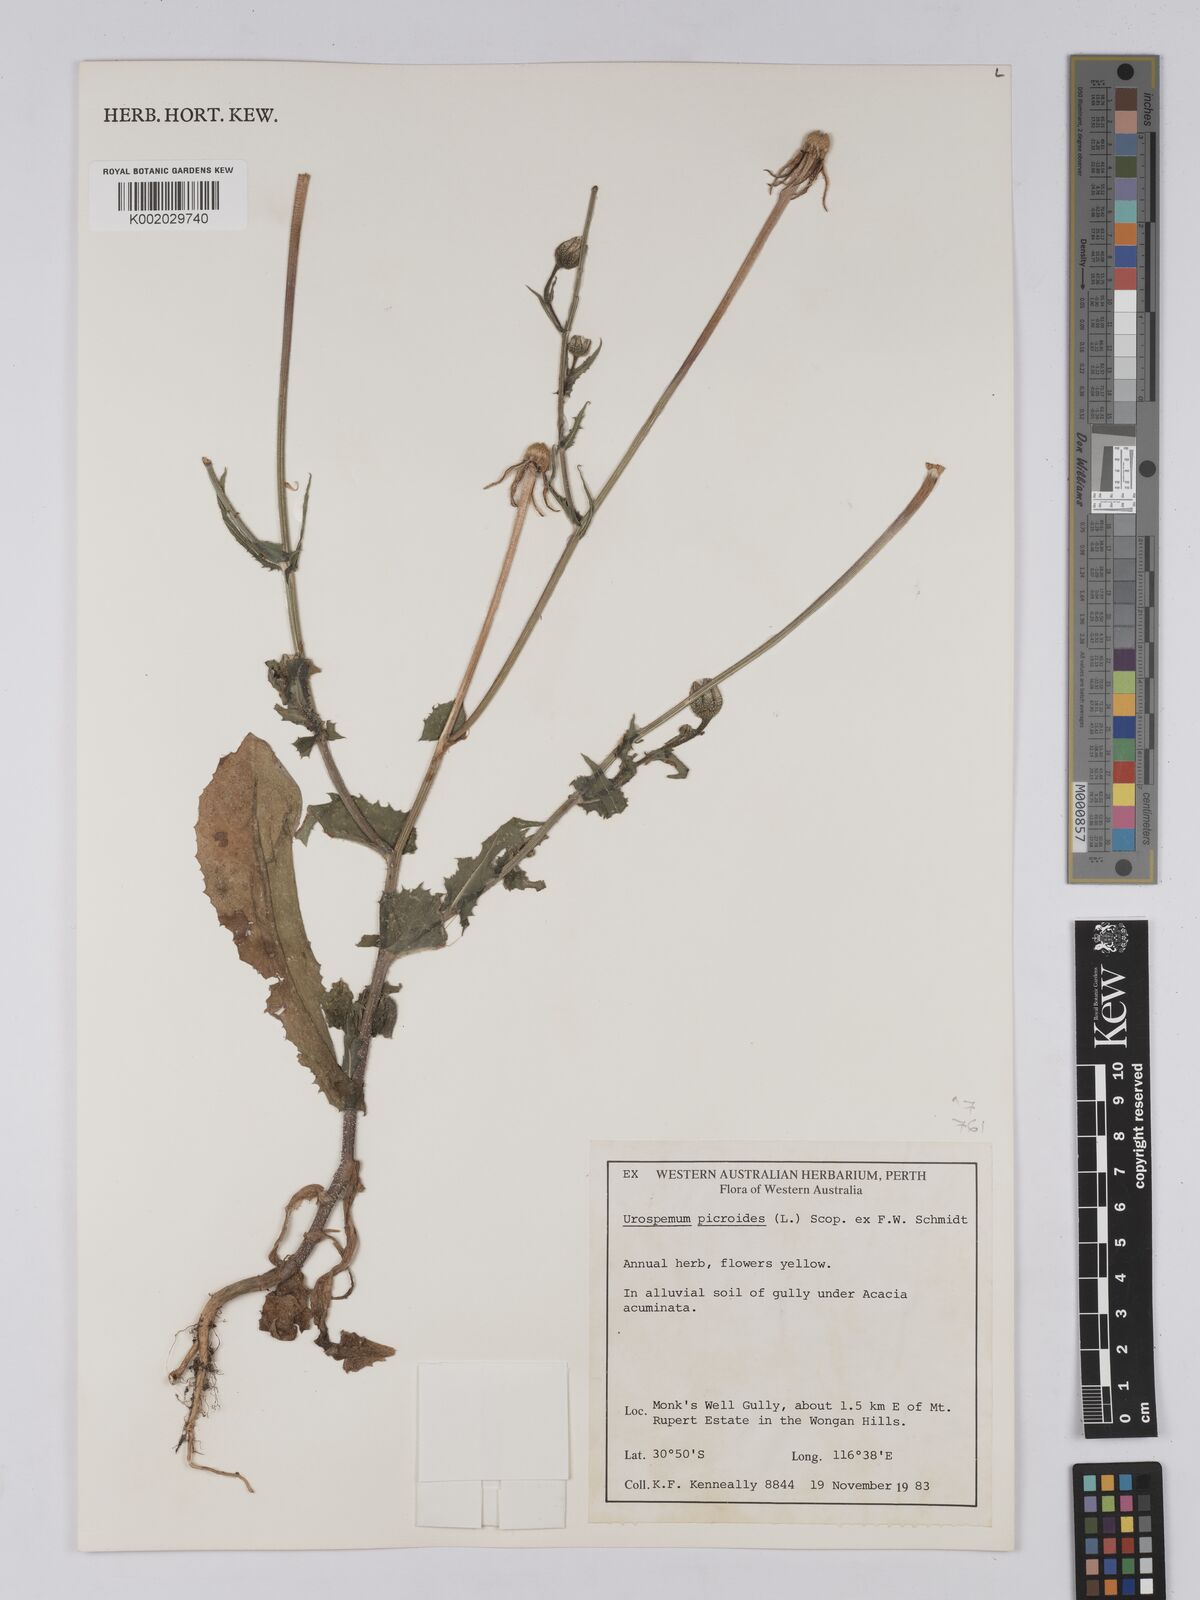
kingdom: Plantae
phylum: Tracheophyta
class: Magnoliopsida
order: Asterales
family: Asteraceae
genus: Urospermum
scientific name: Urospermum picroides
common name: False hawkbit
